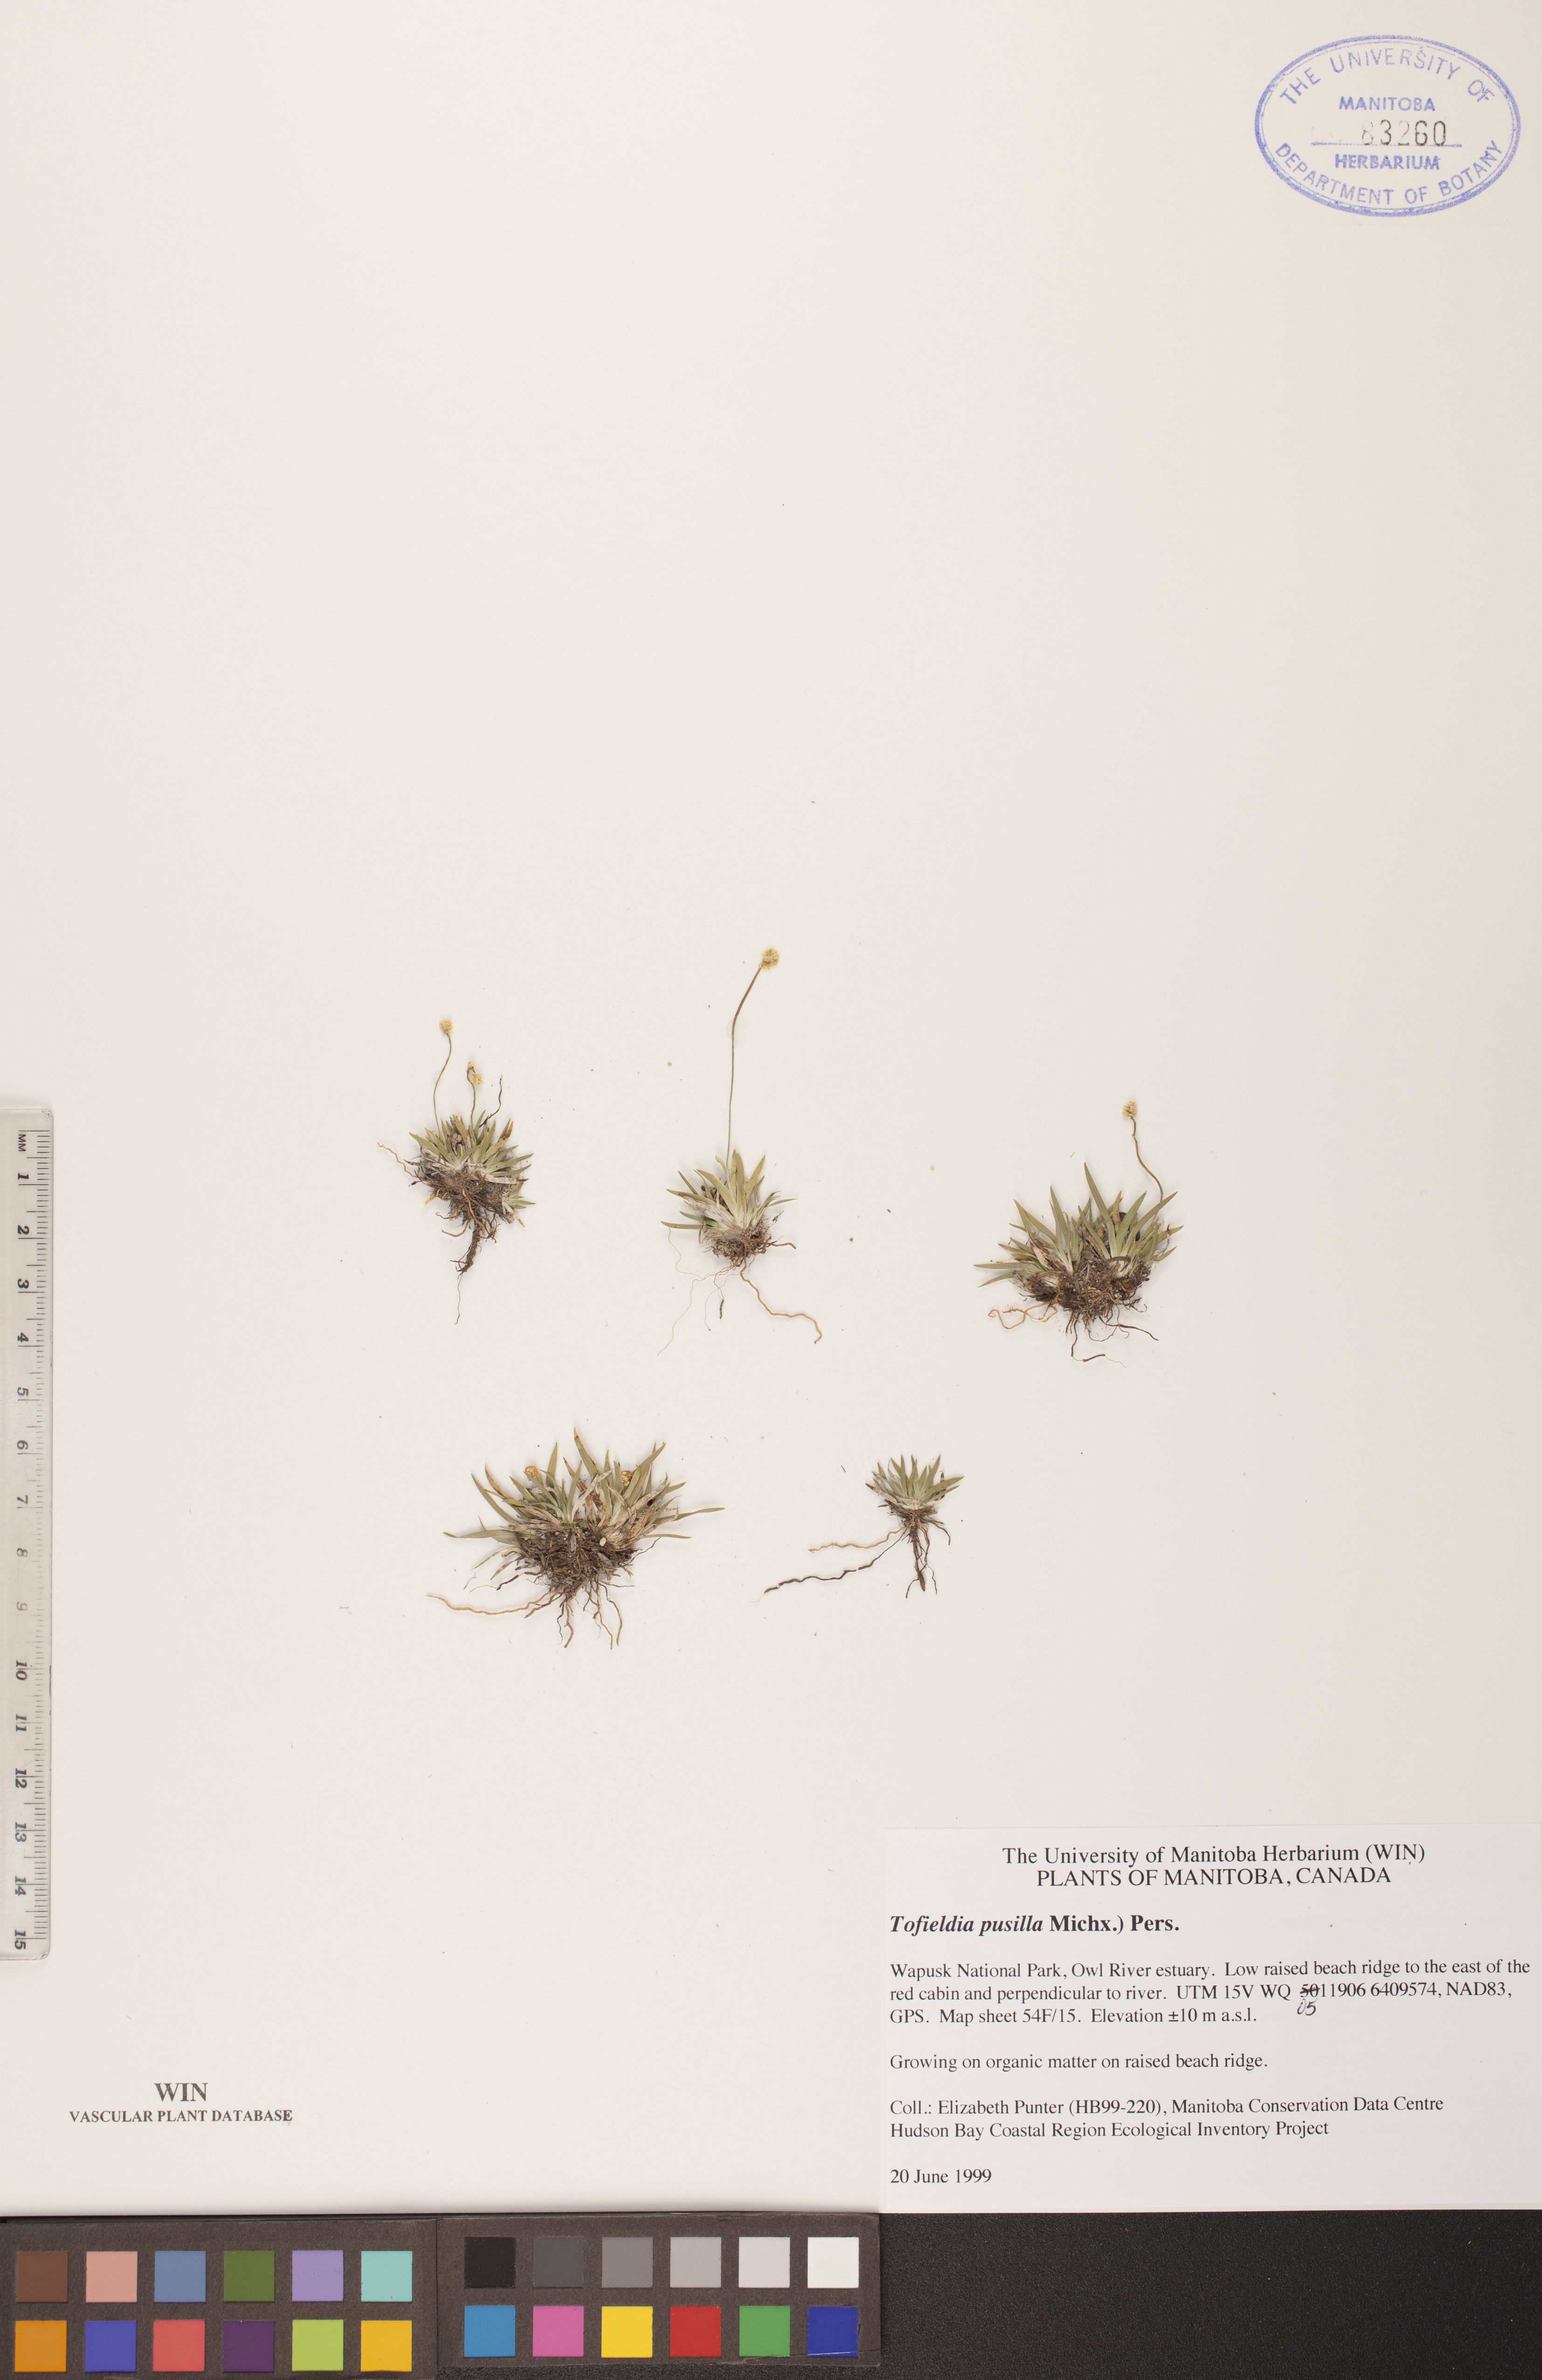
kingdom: Plantae
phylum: Tracheophyta
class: Liliopsida
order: Alismatales
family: Tofieldiaceae
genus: Tofieldia
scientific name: Tofieldia pusilla
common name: Scottish false asphodel
